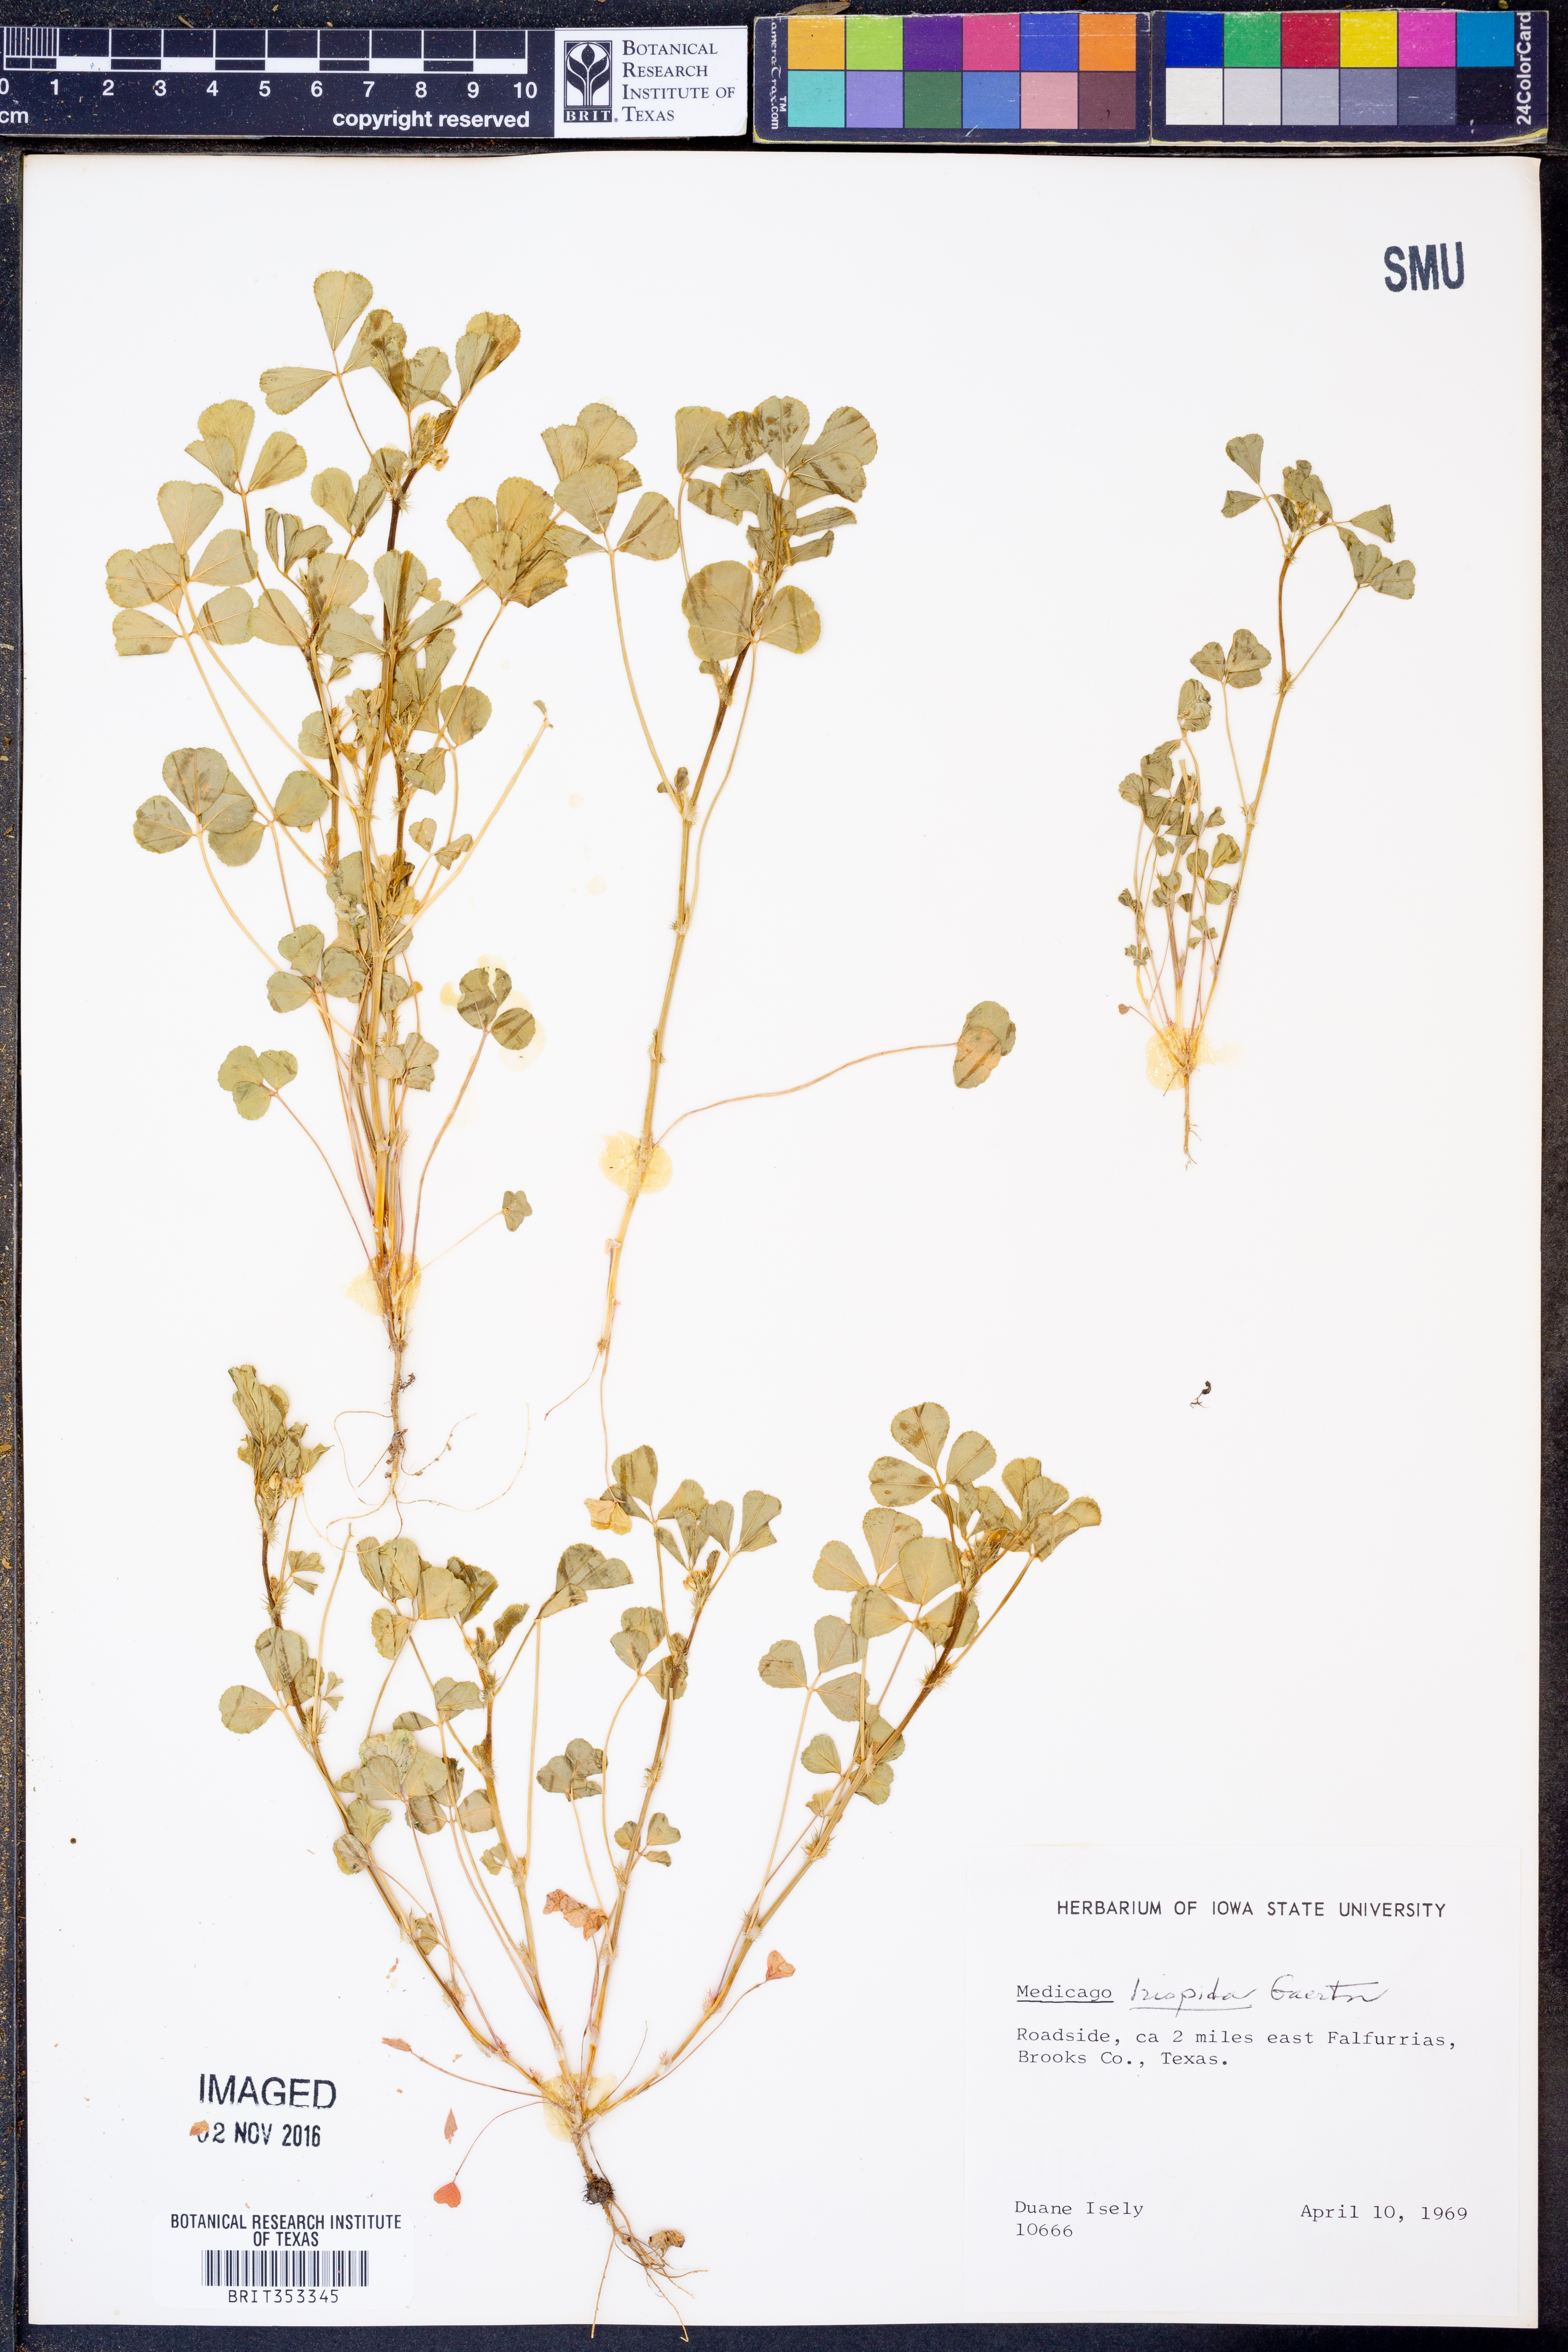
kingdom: Plantae
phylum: Tracheophyta
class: Magnoliopsida
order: Fabales
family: Fabaceae
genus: Medicago
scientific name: Medicago polymorpha
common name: Burclover
